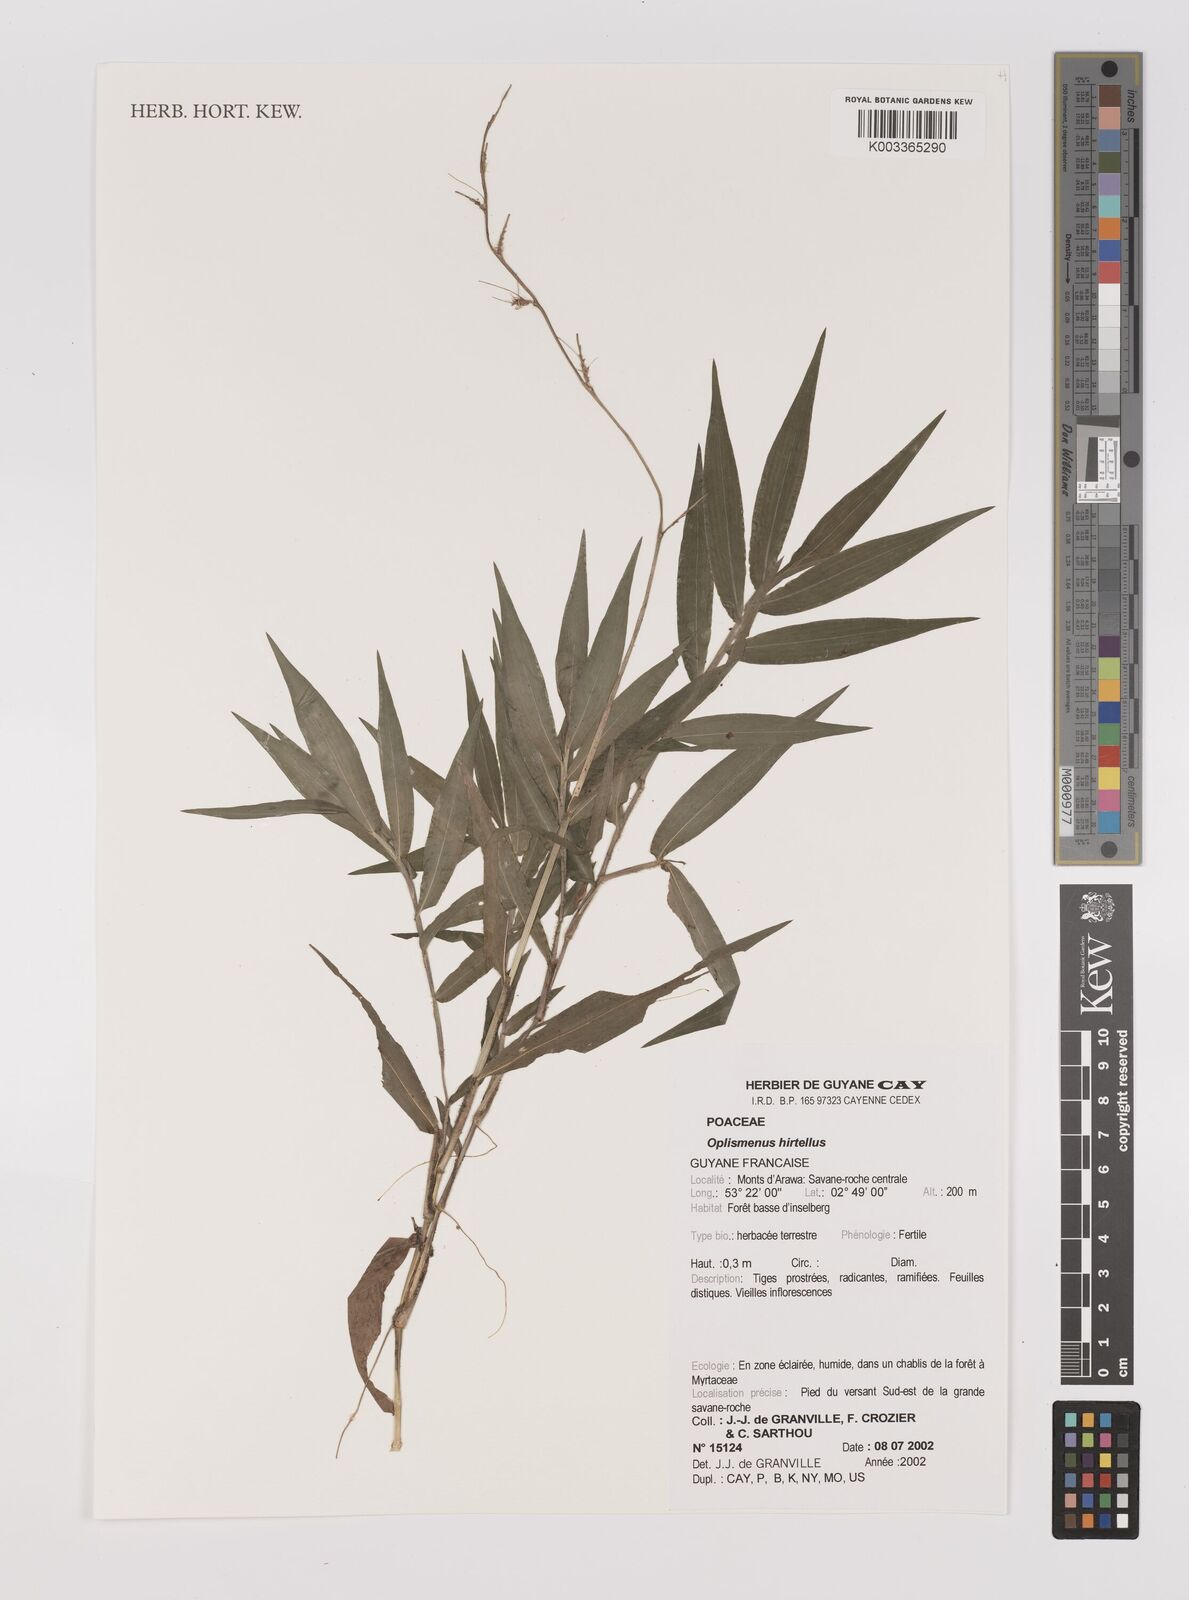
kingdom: Plantae
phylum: Tracheophyta
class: Liliopsida
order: Poales
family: Poaceae
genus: Oplismenus
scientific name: Oplismenus hirtellus
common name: Basketgrass
